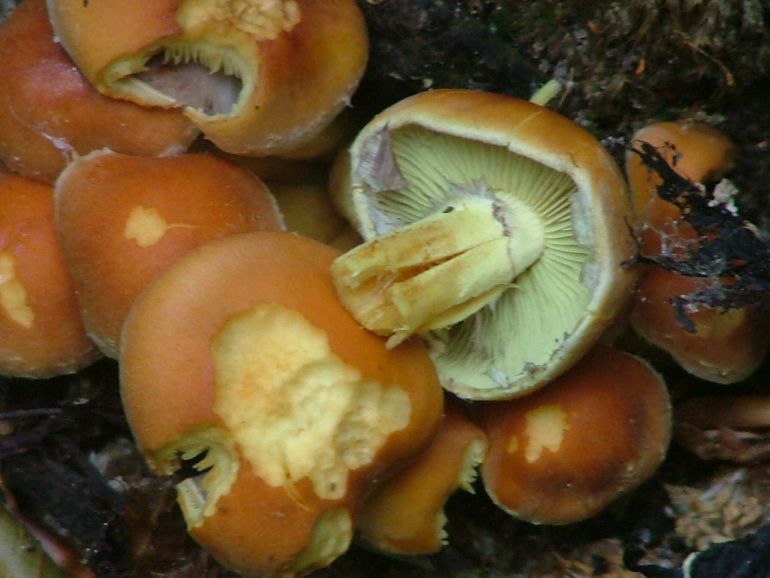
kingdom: Fungi
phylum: Basidiomycota
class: Agaricomycetes
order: Agaricales
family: Strophariaceae
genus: Hypholoma
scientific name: Hypholoma fasciculare
